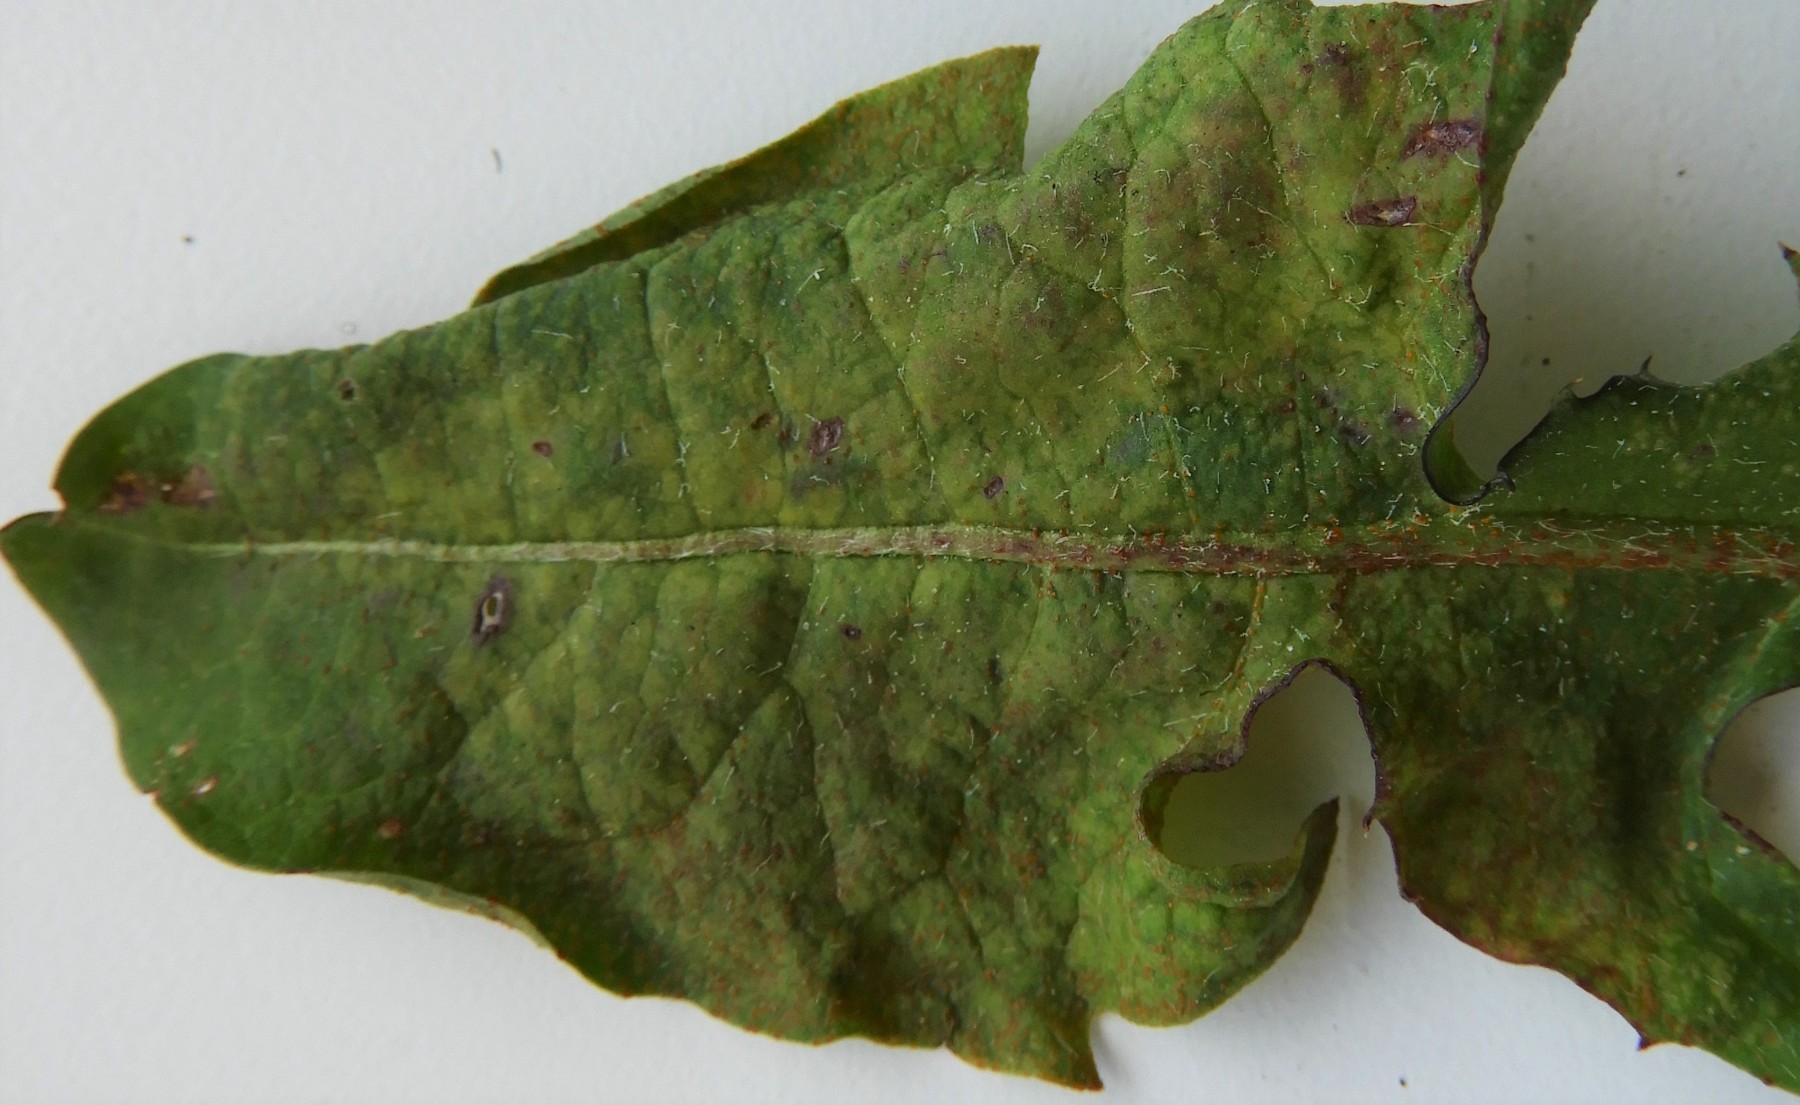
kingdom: Fungi
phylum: Chytridiomycota
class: Chytridiomycetes
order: Chytridiales
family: Synchytriaceae
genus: Synchytrium
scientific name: Synchytrium taraxaci
